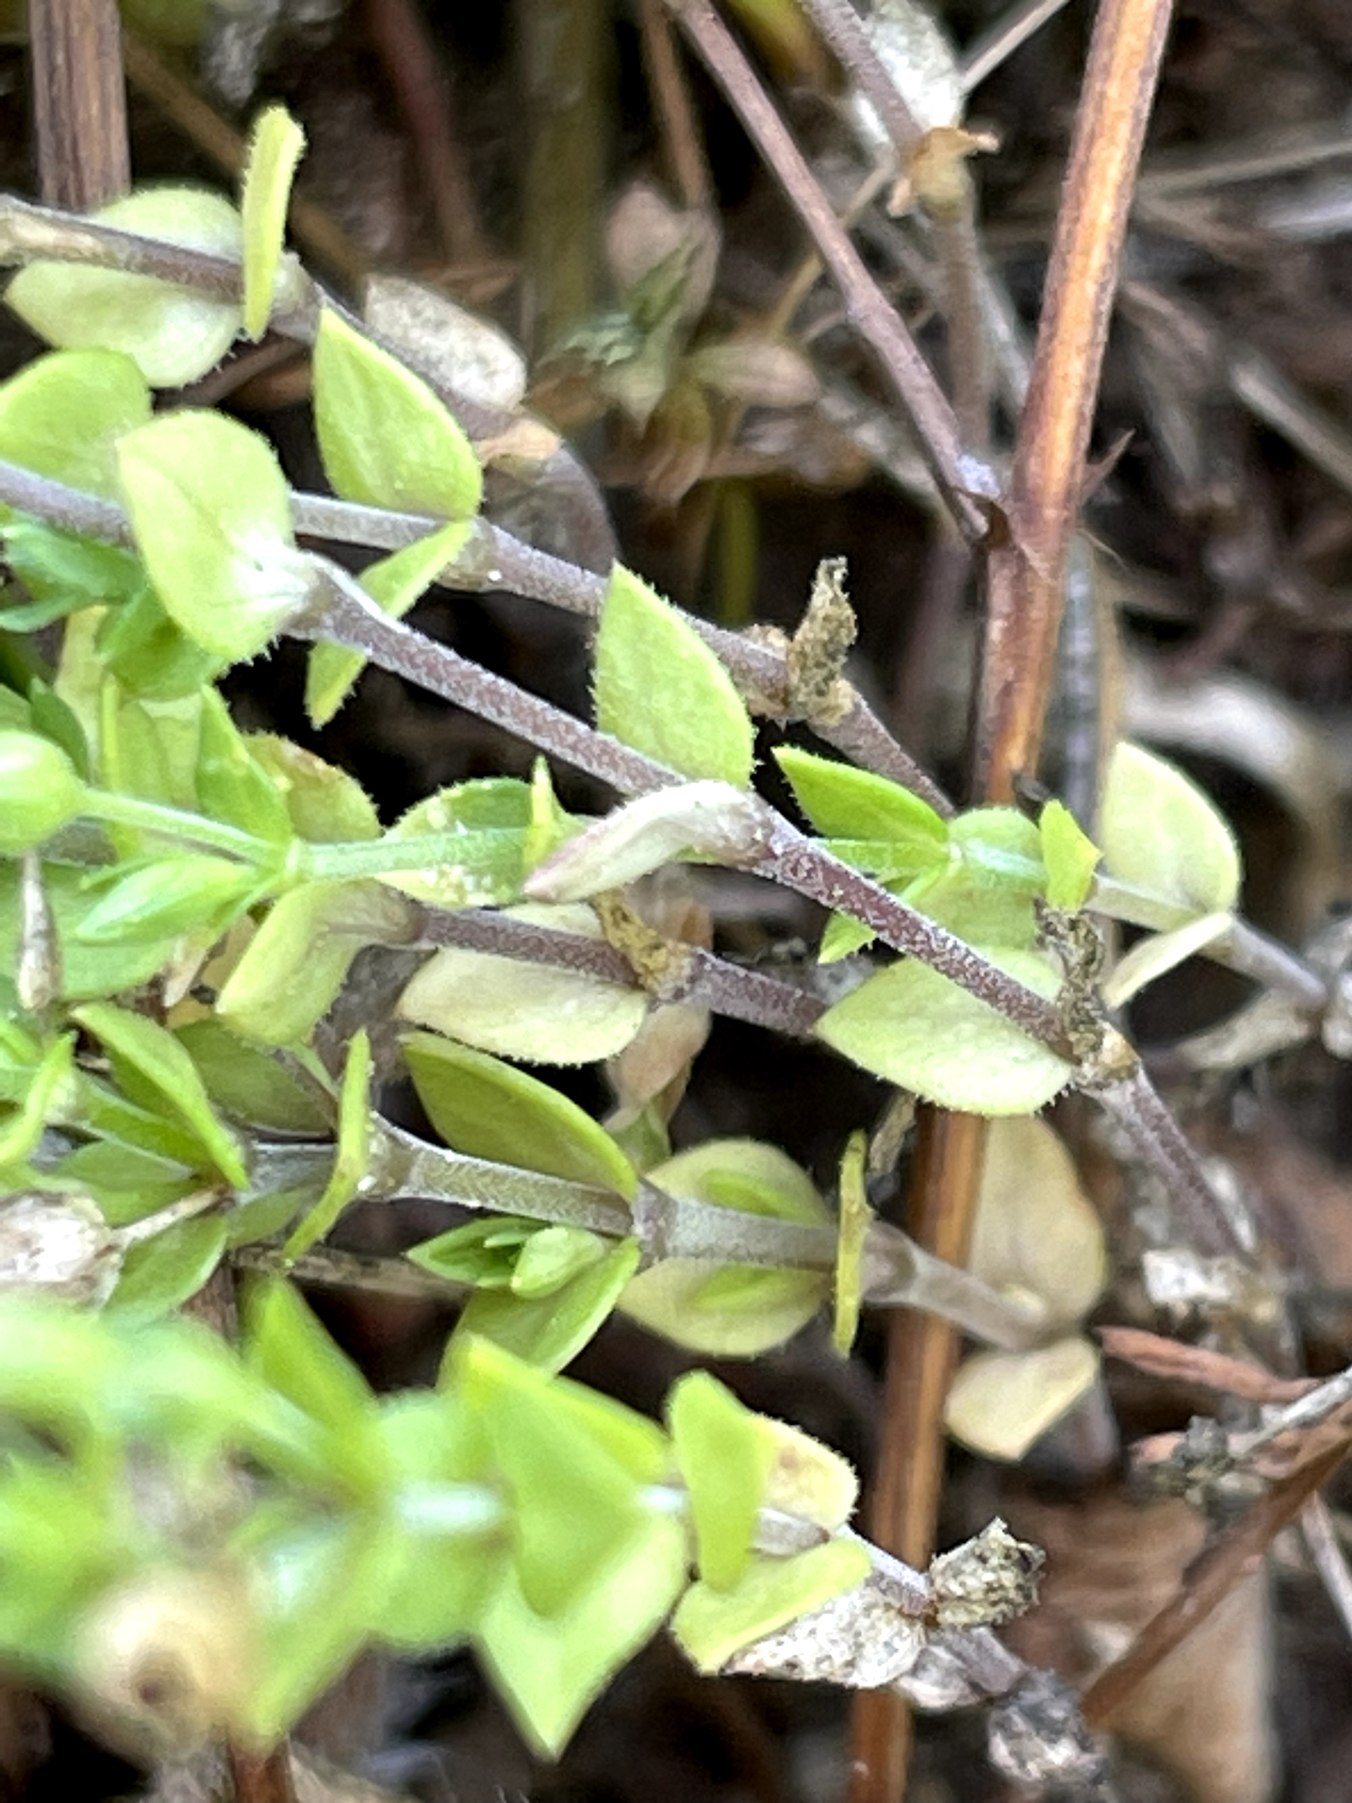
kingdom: Plantae
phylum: Tracheophyta
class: Magnoliopsida
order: Caryophyllales
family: Caryophyllaceae
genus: Arenaria
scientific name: Arenaria serpyllifolia
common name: Almindelig markarve
